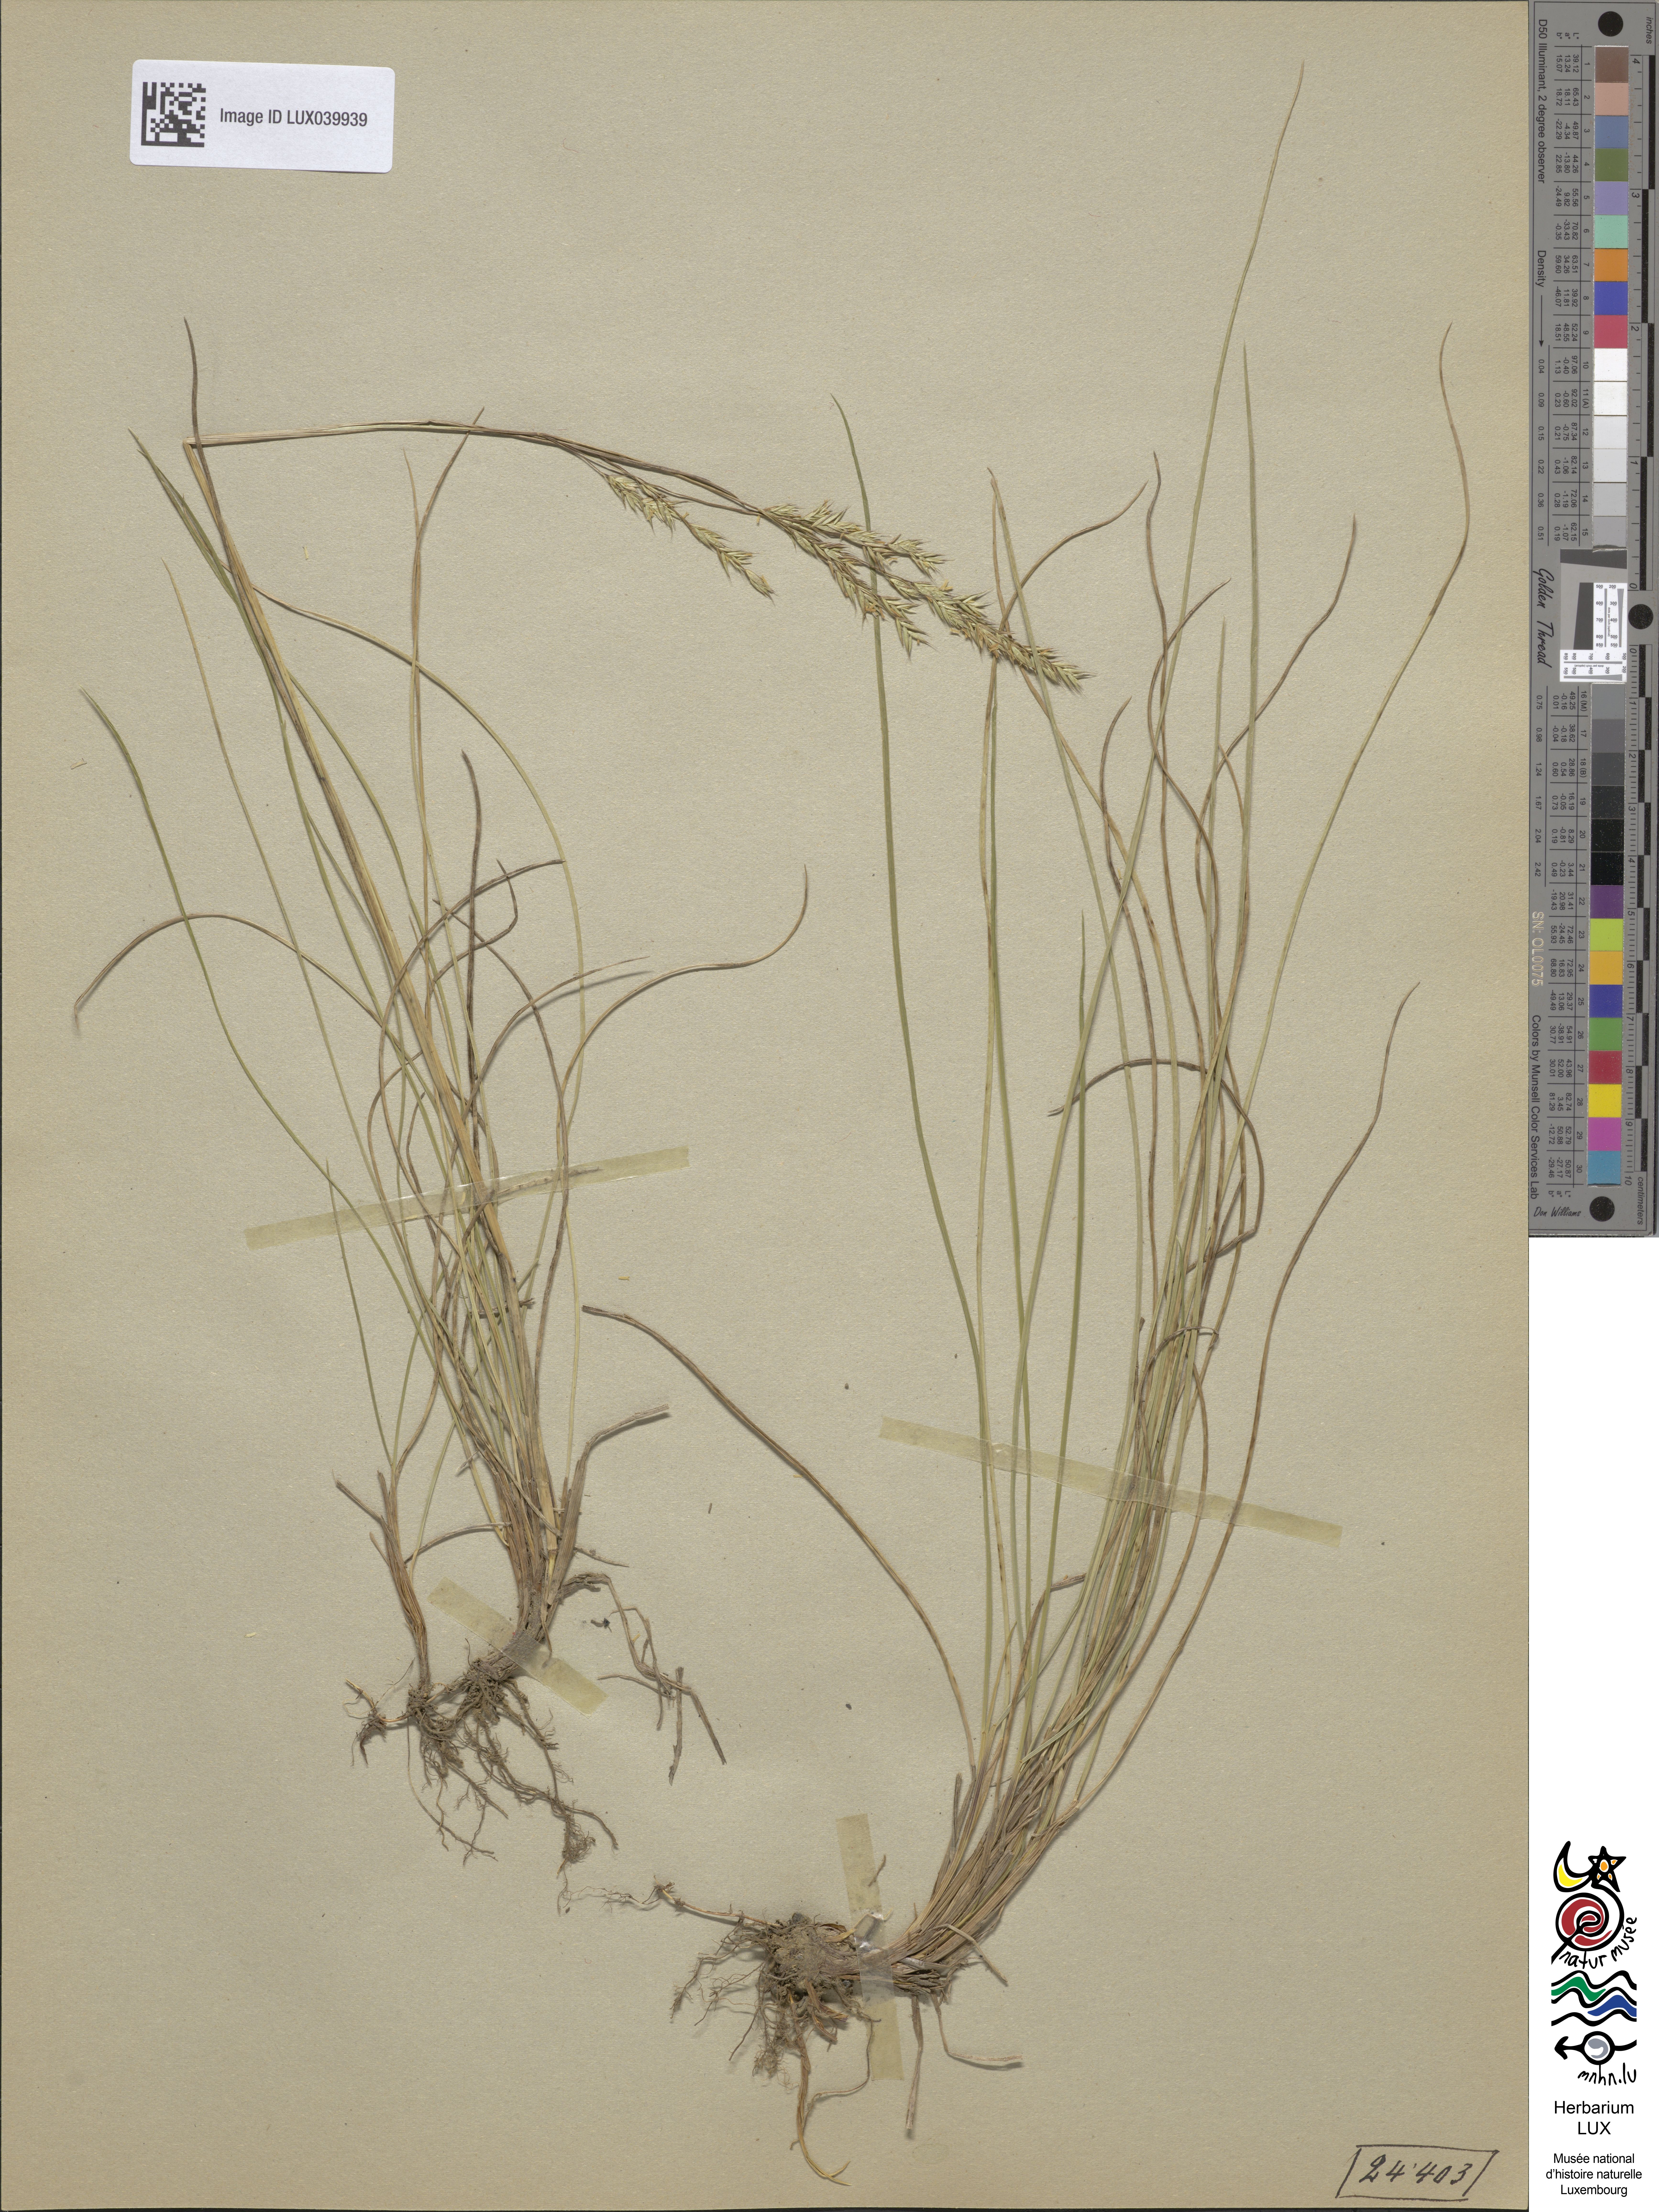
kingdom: Plantae
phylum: Tracheophyta
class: Liliopsida
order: Poales
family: Poaceae
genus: Festuca
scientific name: Festuca rubra
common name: Red fescue
